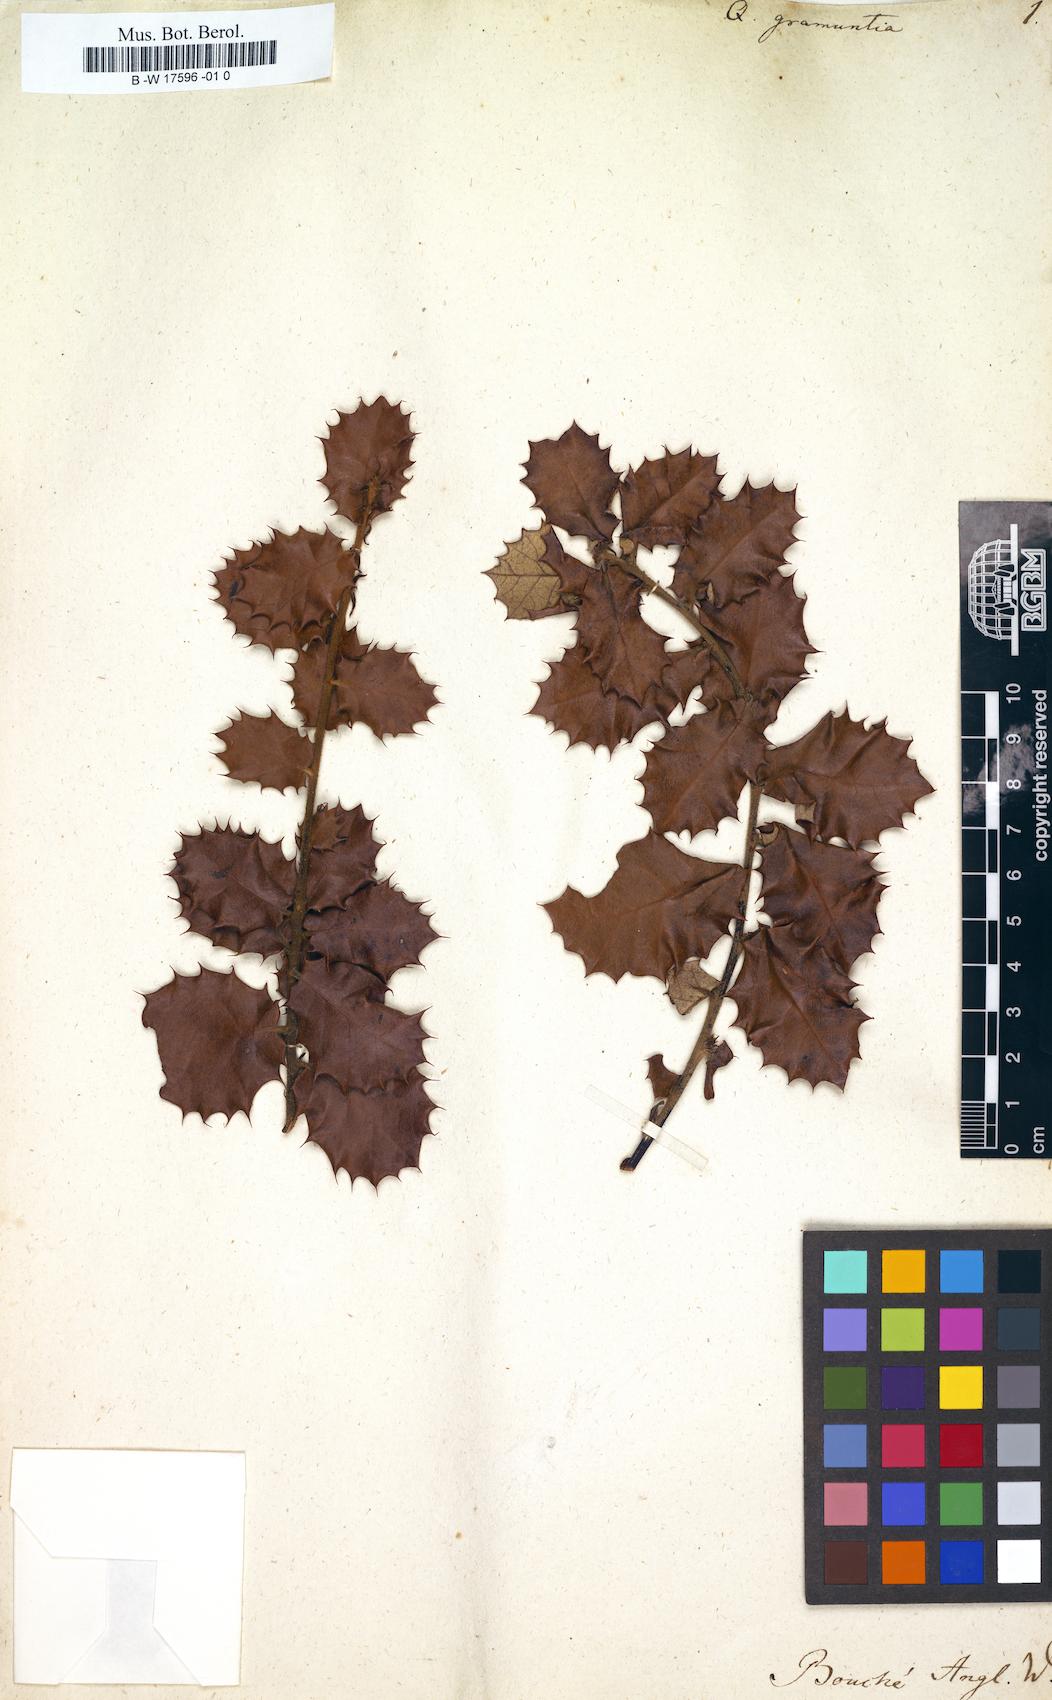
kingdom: Plantae
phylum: Tracheophyta
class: Magnoliopsida
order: Fagales
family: Fagaceae
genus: Quercus
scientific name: Quercus ilex
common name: Evergreen oak
